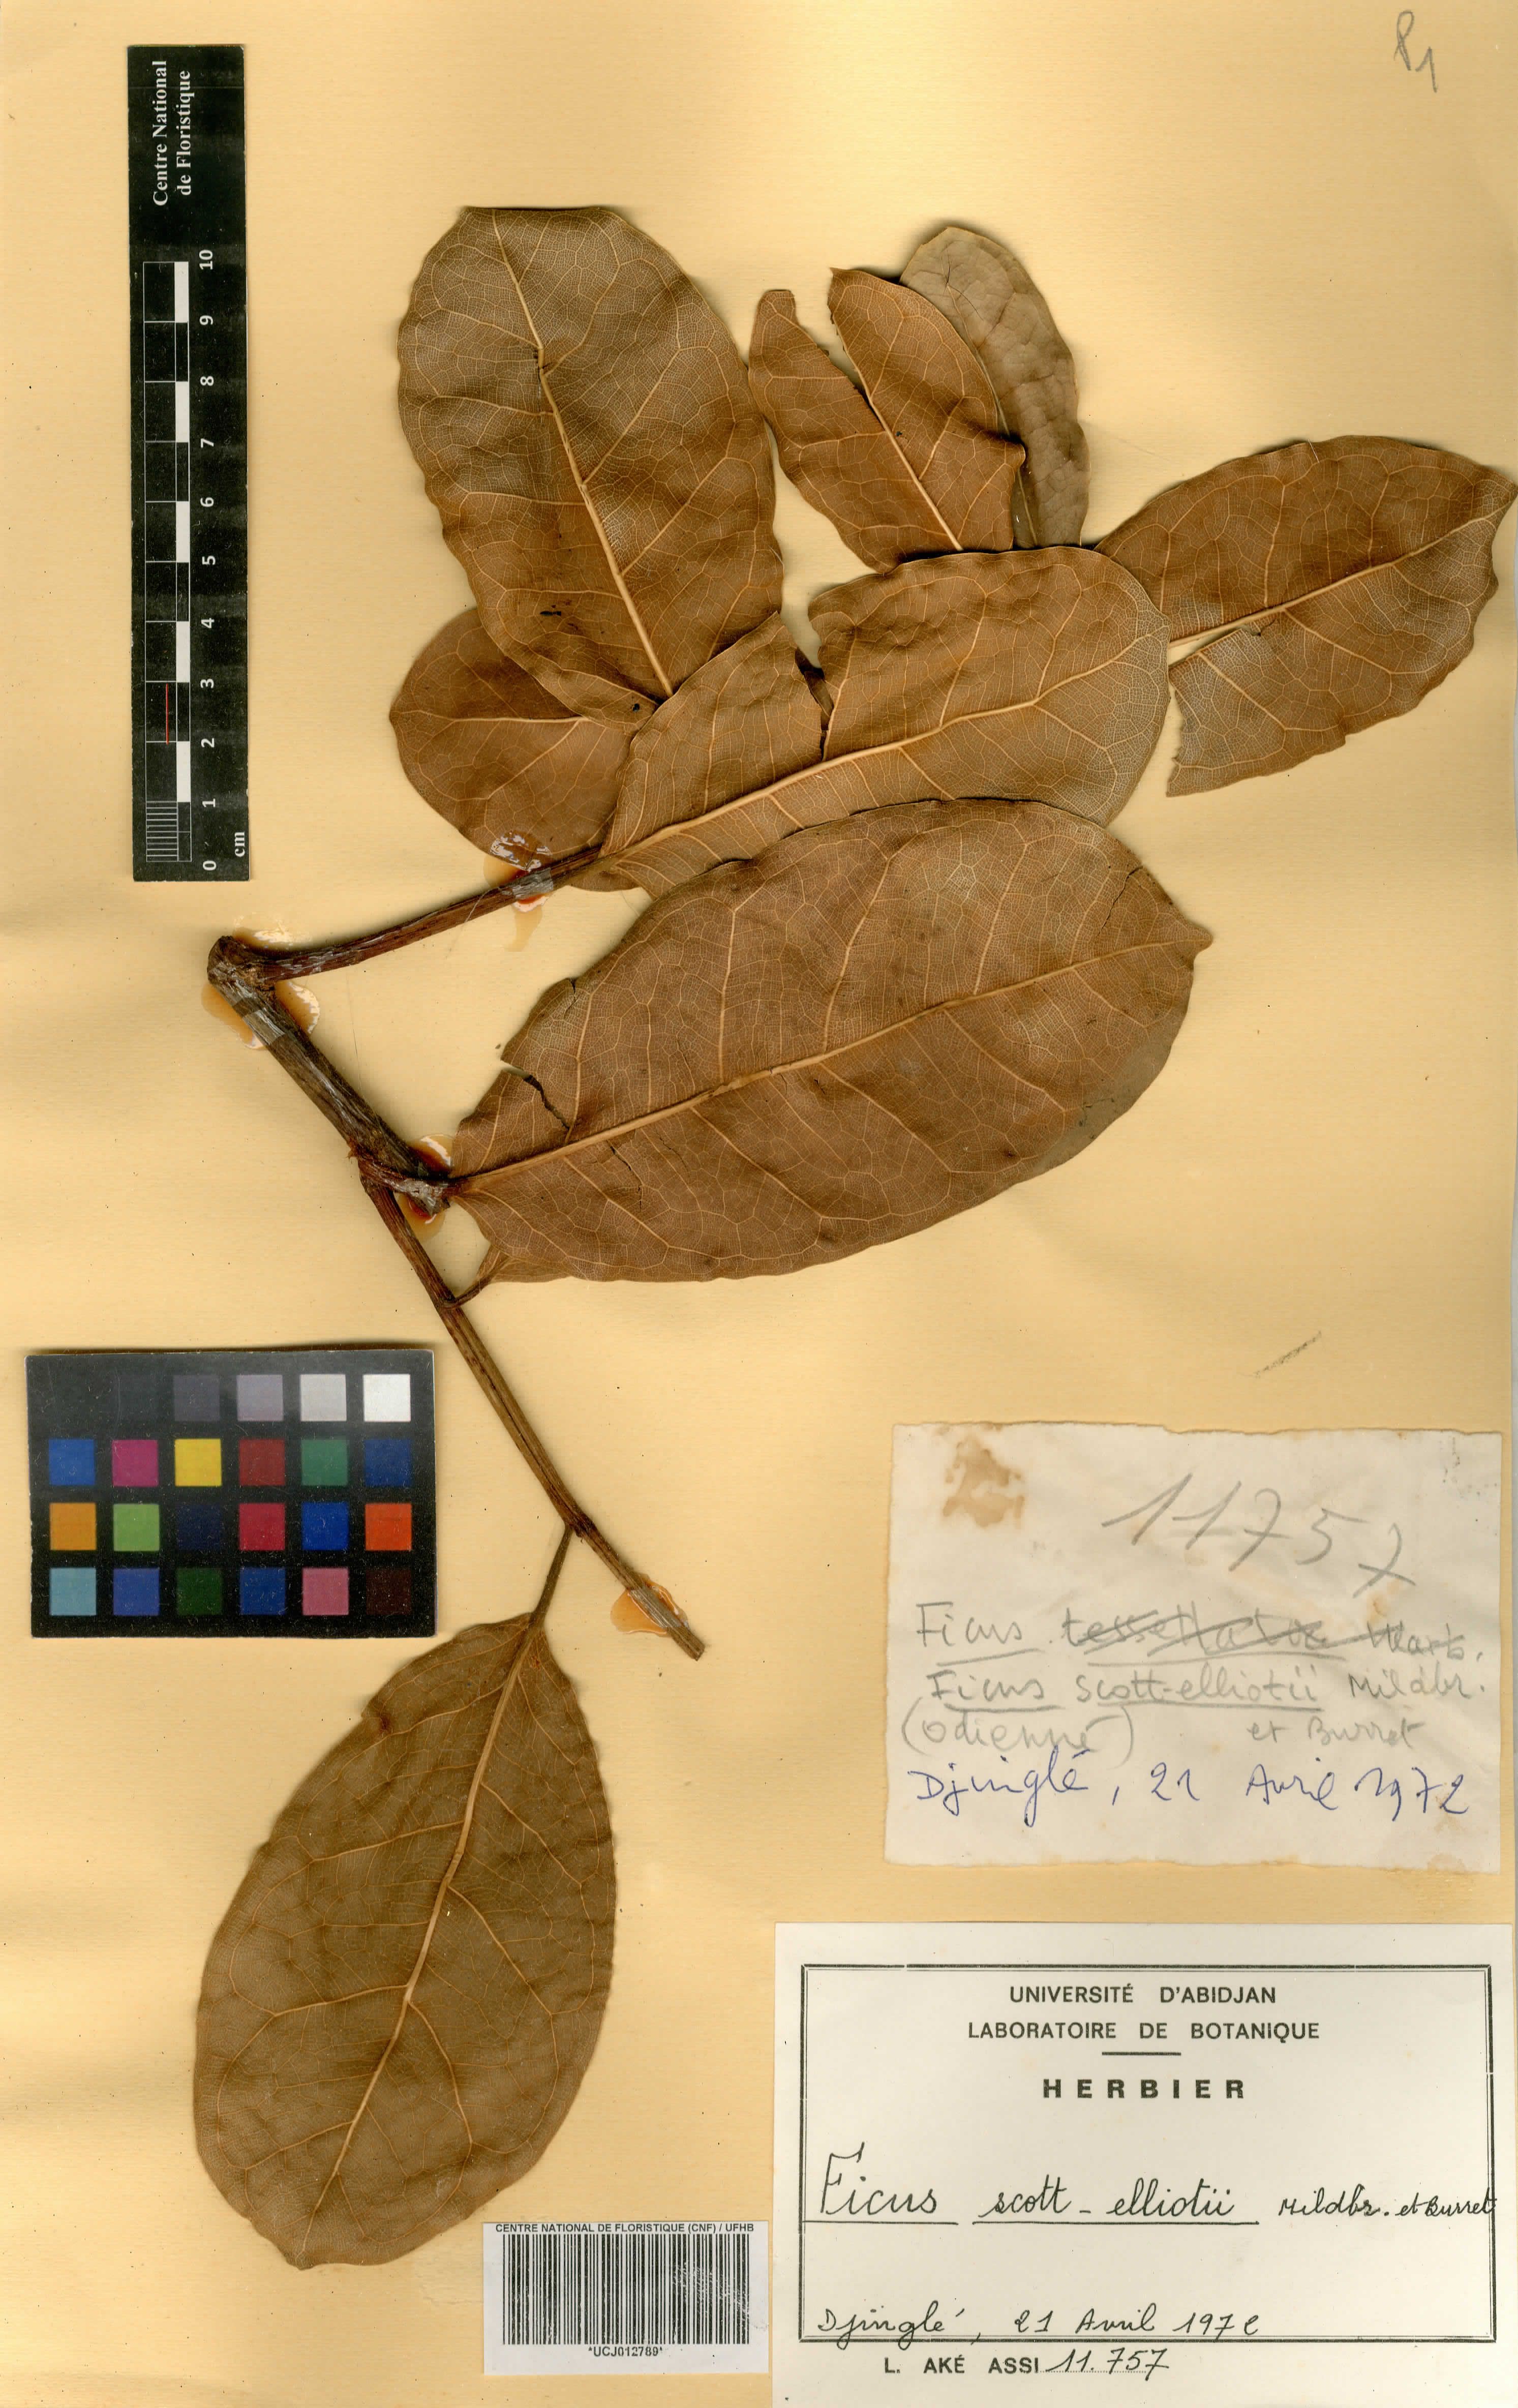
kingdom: Plantae
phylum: Tracheophyta
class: Magnoliopsida
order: Rosales
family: Moraceae
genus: Ficus
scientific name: Ficus scott-elliottii
